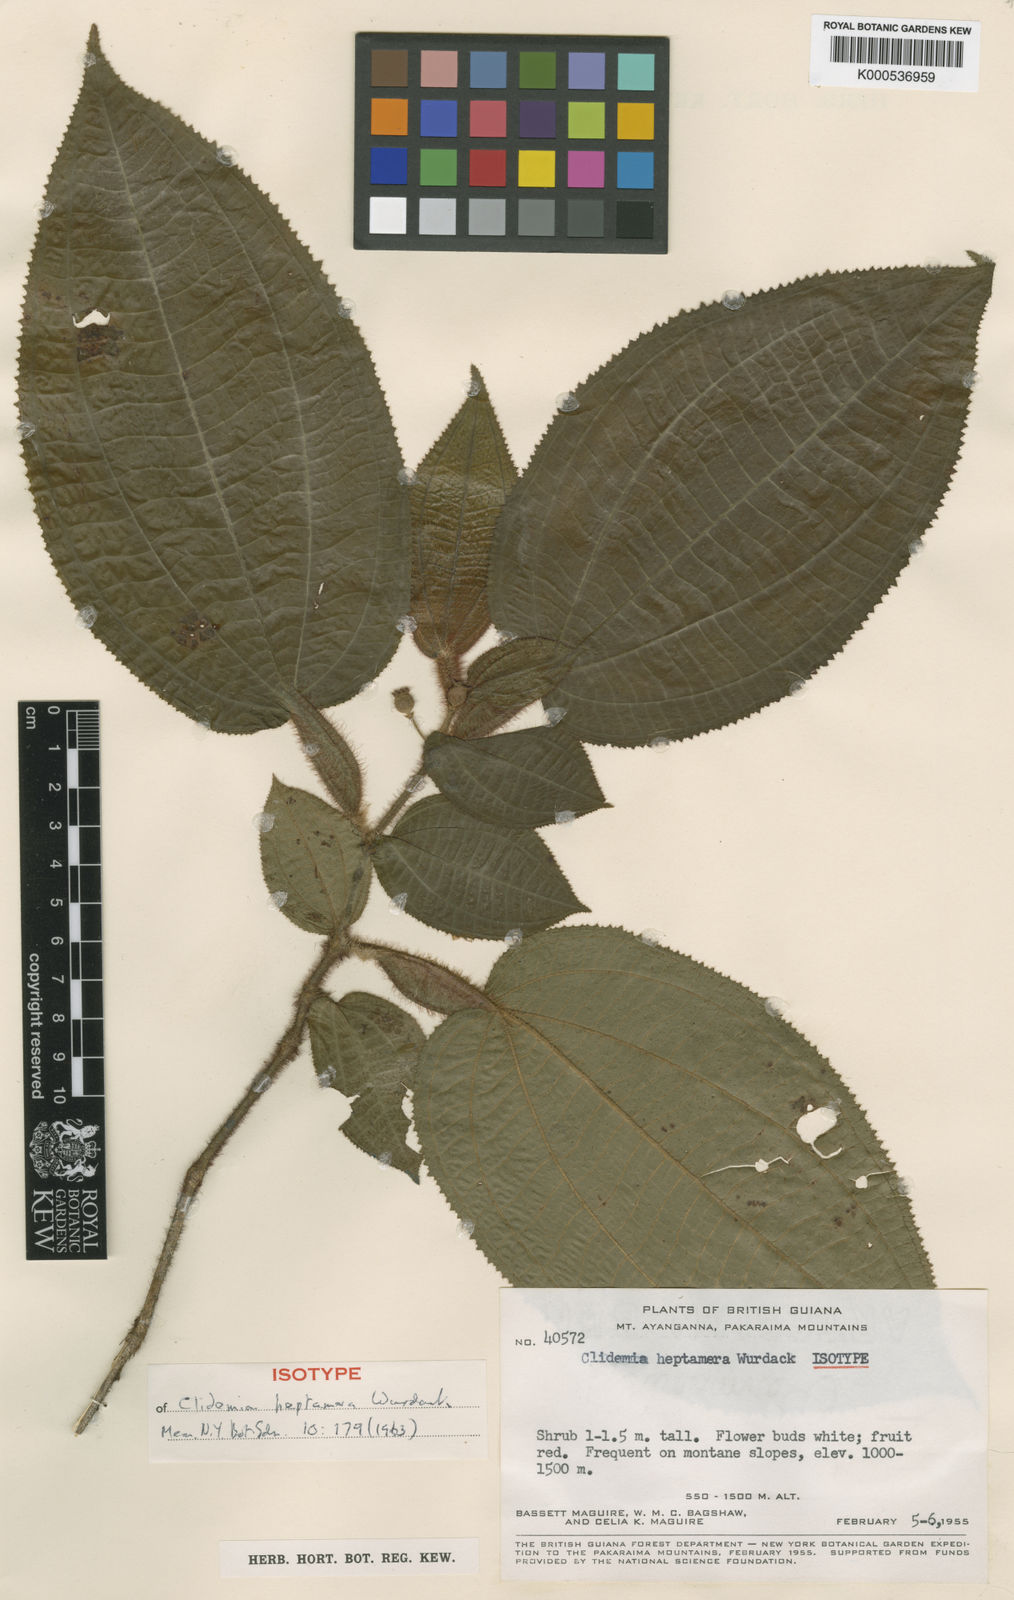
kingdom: Plantae
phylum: Tracheophyta
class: Magnoliopsida
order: Myrtales
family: Melastomataceae
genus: Miconia
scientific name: Miconia heptamera
